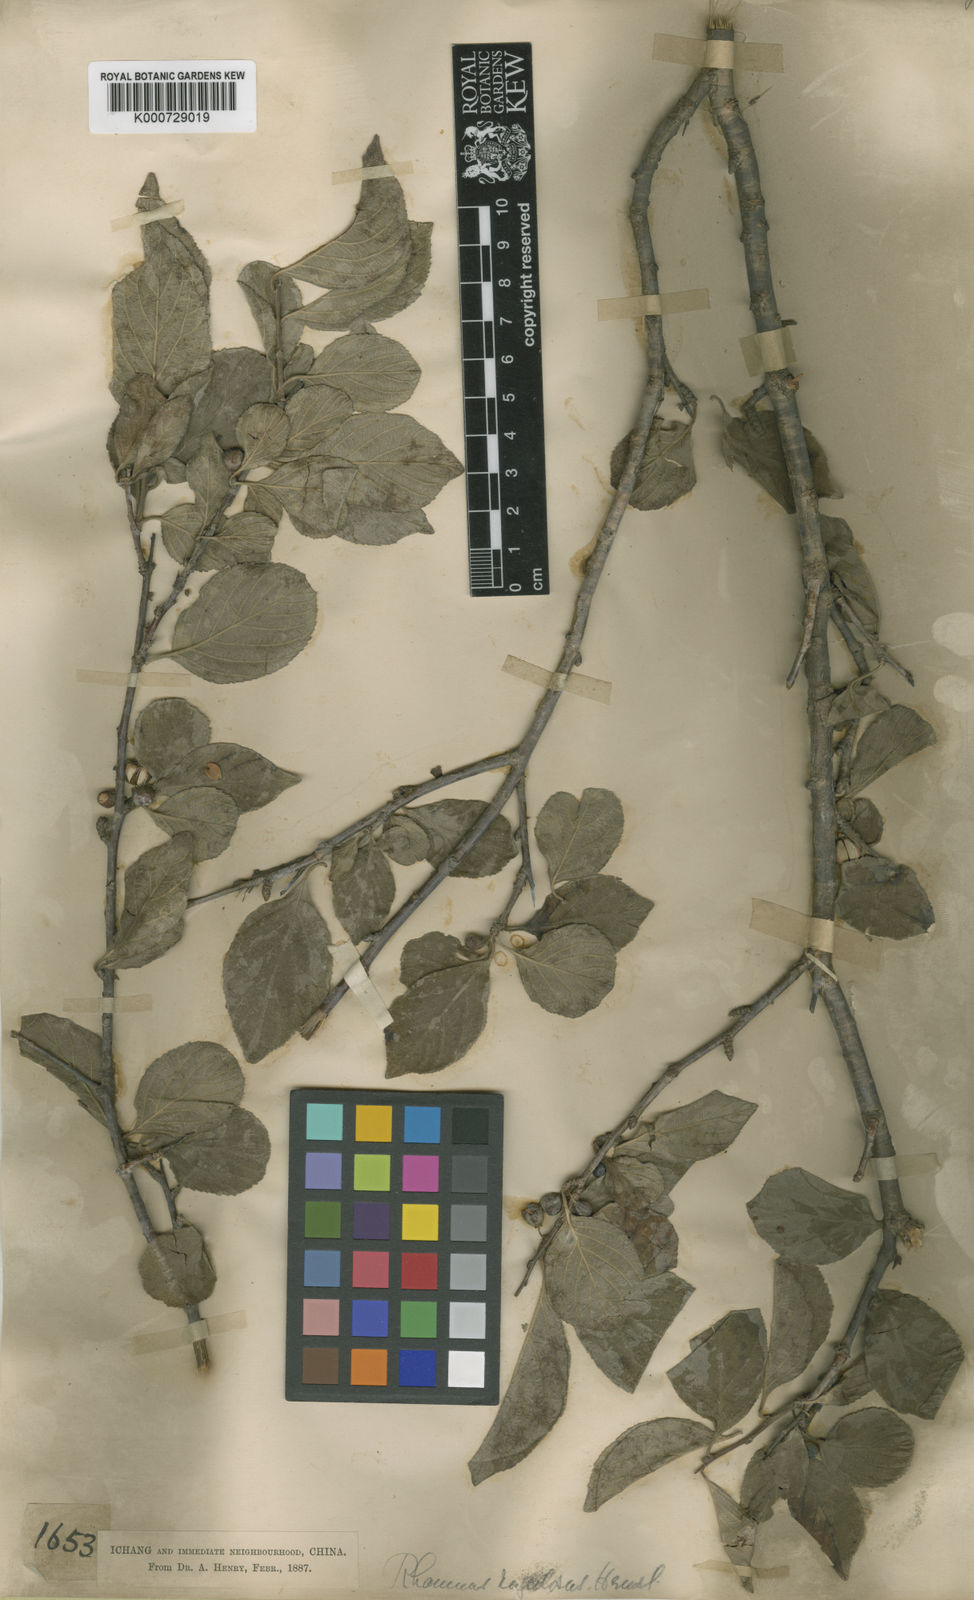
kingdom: Plantae
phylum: Tracheophyta
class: Magnoliopsida
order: Rosales
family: Rhamnaceae
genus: Rhamnus
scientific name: Rhamnus rugulosa
